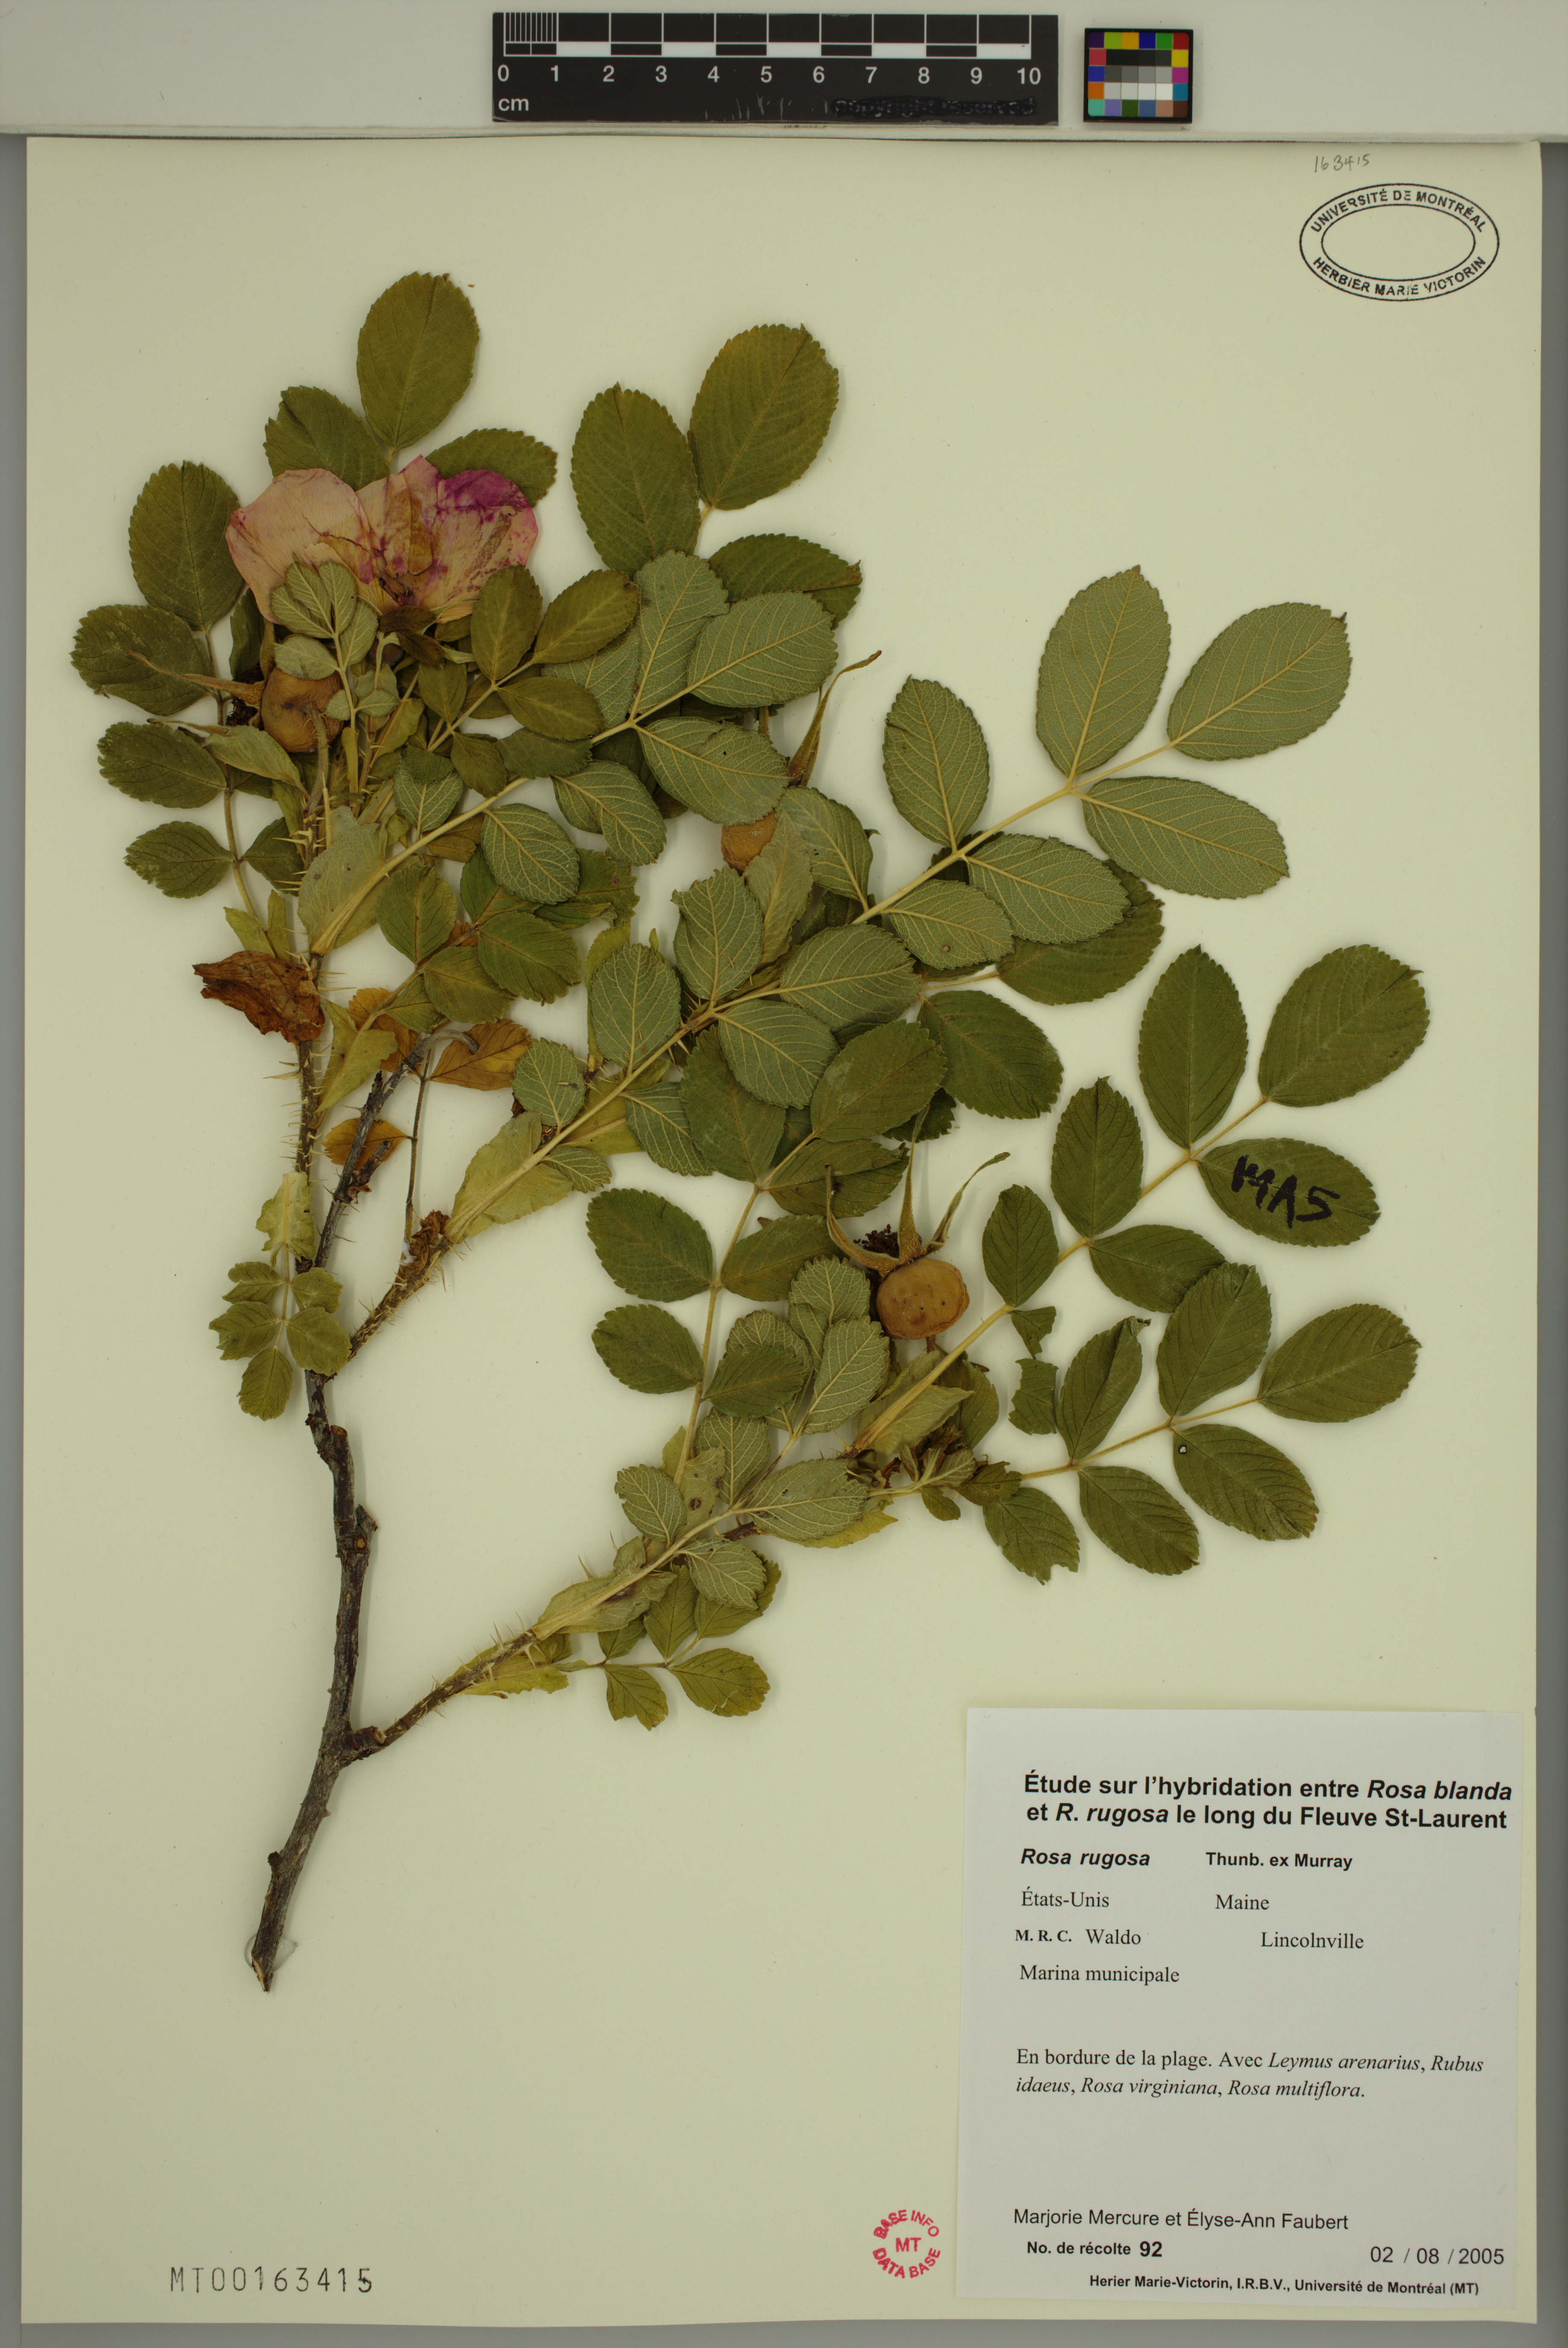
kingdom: Plantae
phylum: Tracheophyta
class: Magnoliopsida
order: Rosales
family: Rosaceae
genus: Rosa
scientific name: Rosa rugosa
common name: Japanese rose
